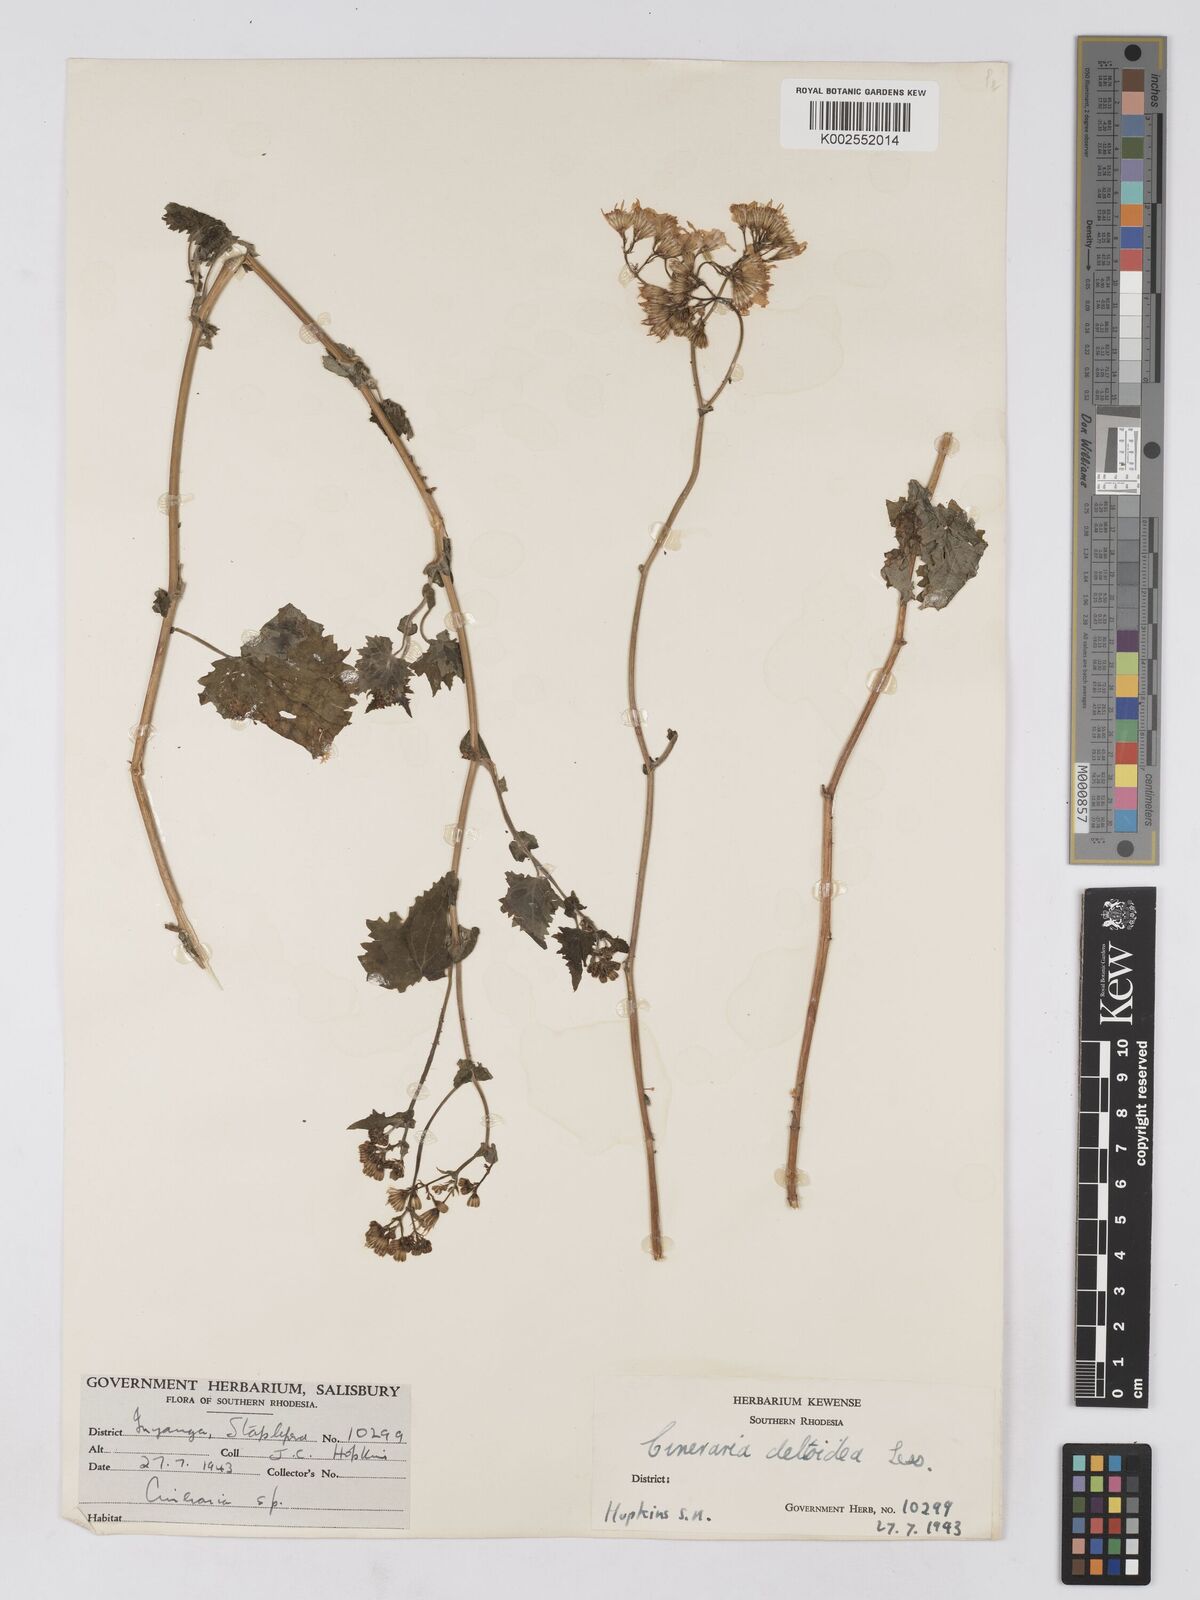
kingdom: Plantae
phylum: Tracheophyta
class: Magnoliopsida
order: Asterales
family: Asteraceae
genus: Cineraria
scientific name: Cineraria deltoidea
